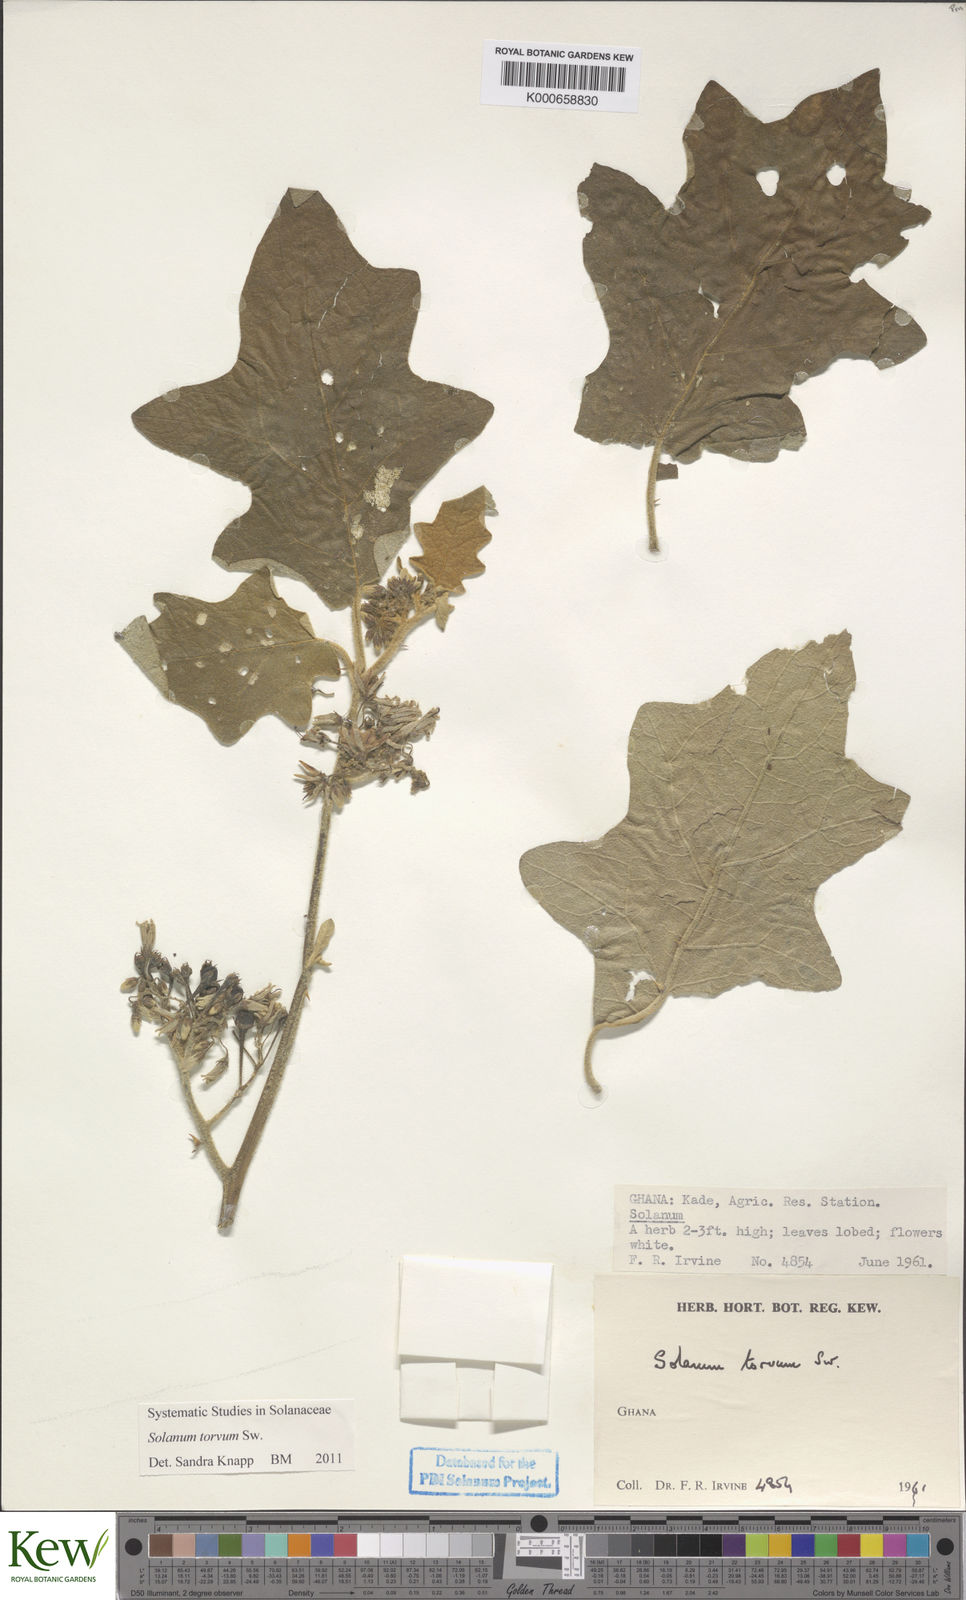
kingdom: Plantae
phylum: Tracheophyta
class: Magnoliopsida
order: Solanales
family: Solanaceae
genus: Solanum
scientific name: Solanum torvum
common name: Turkey berry
